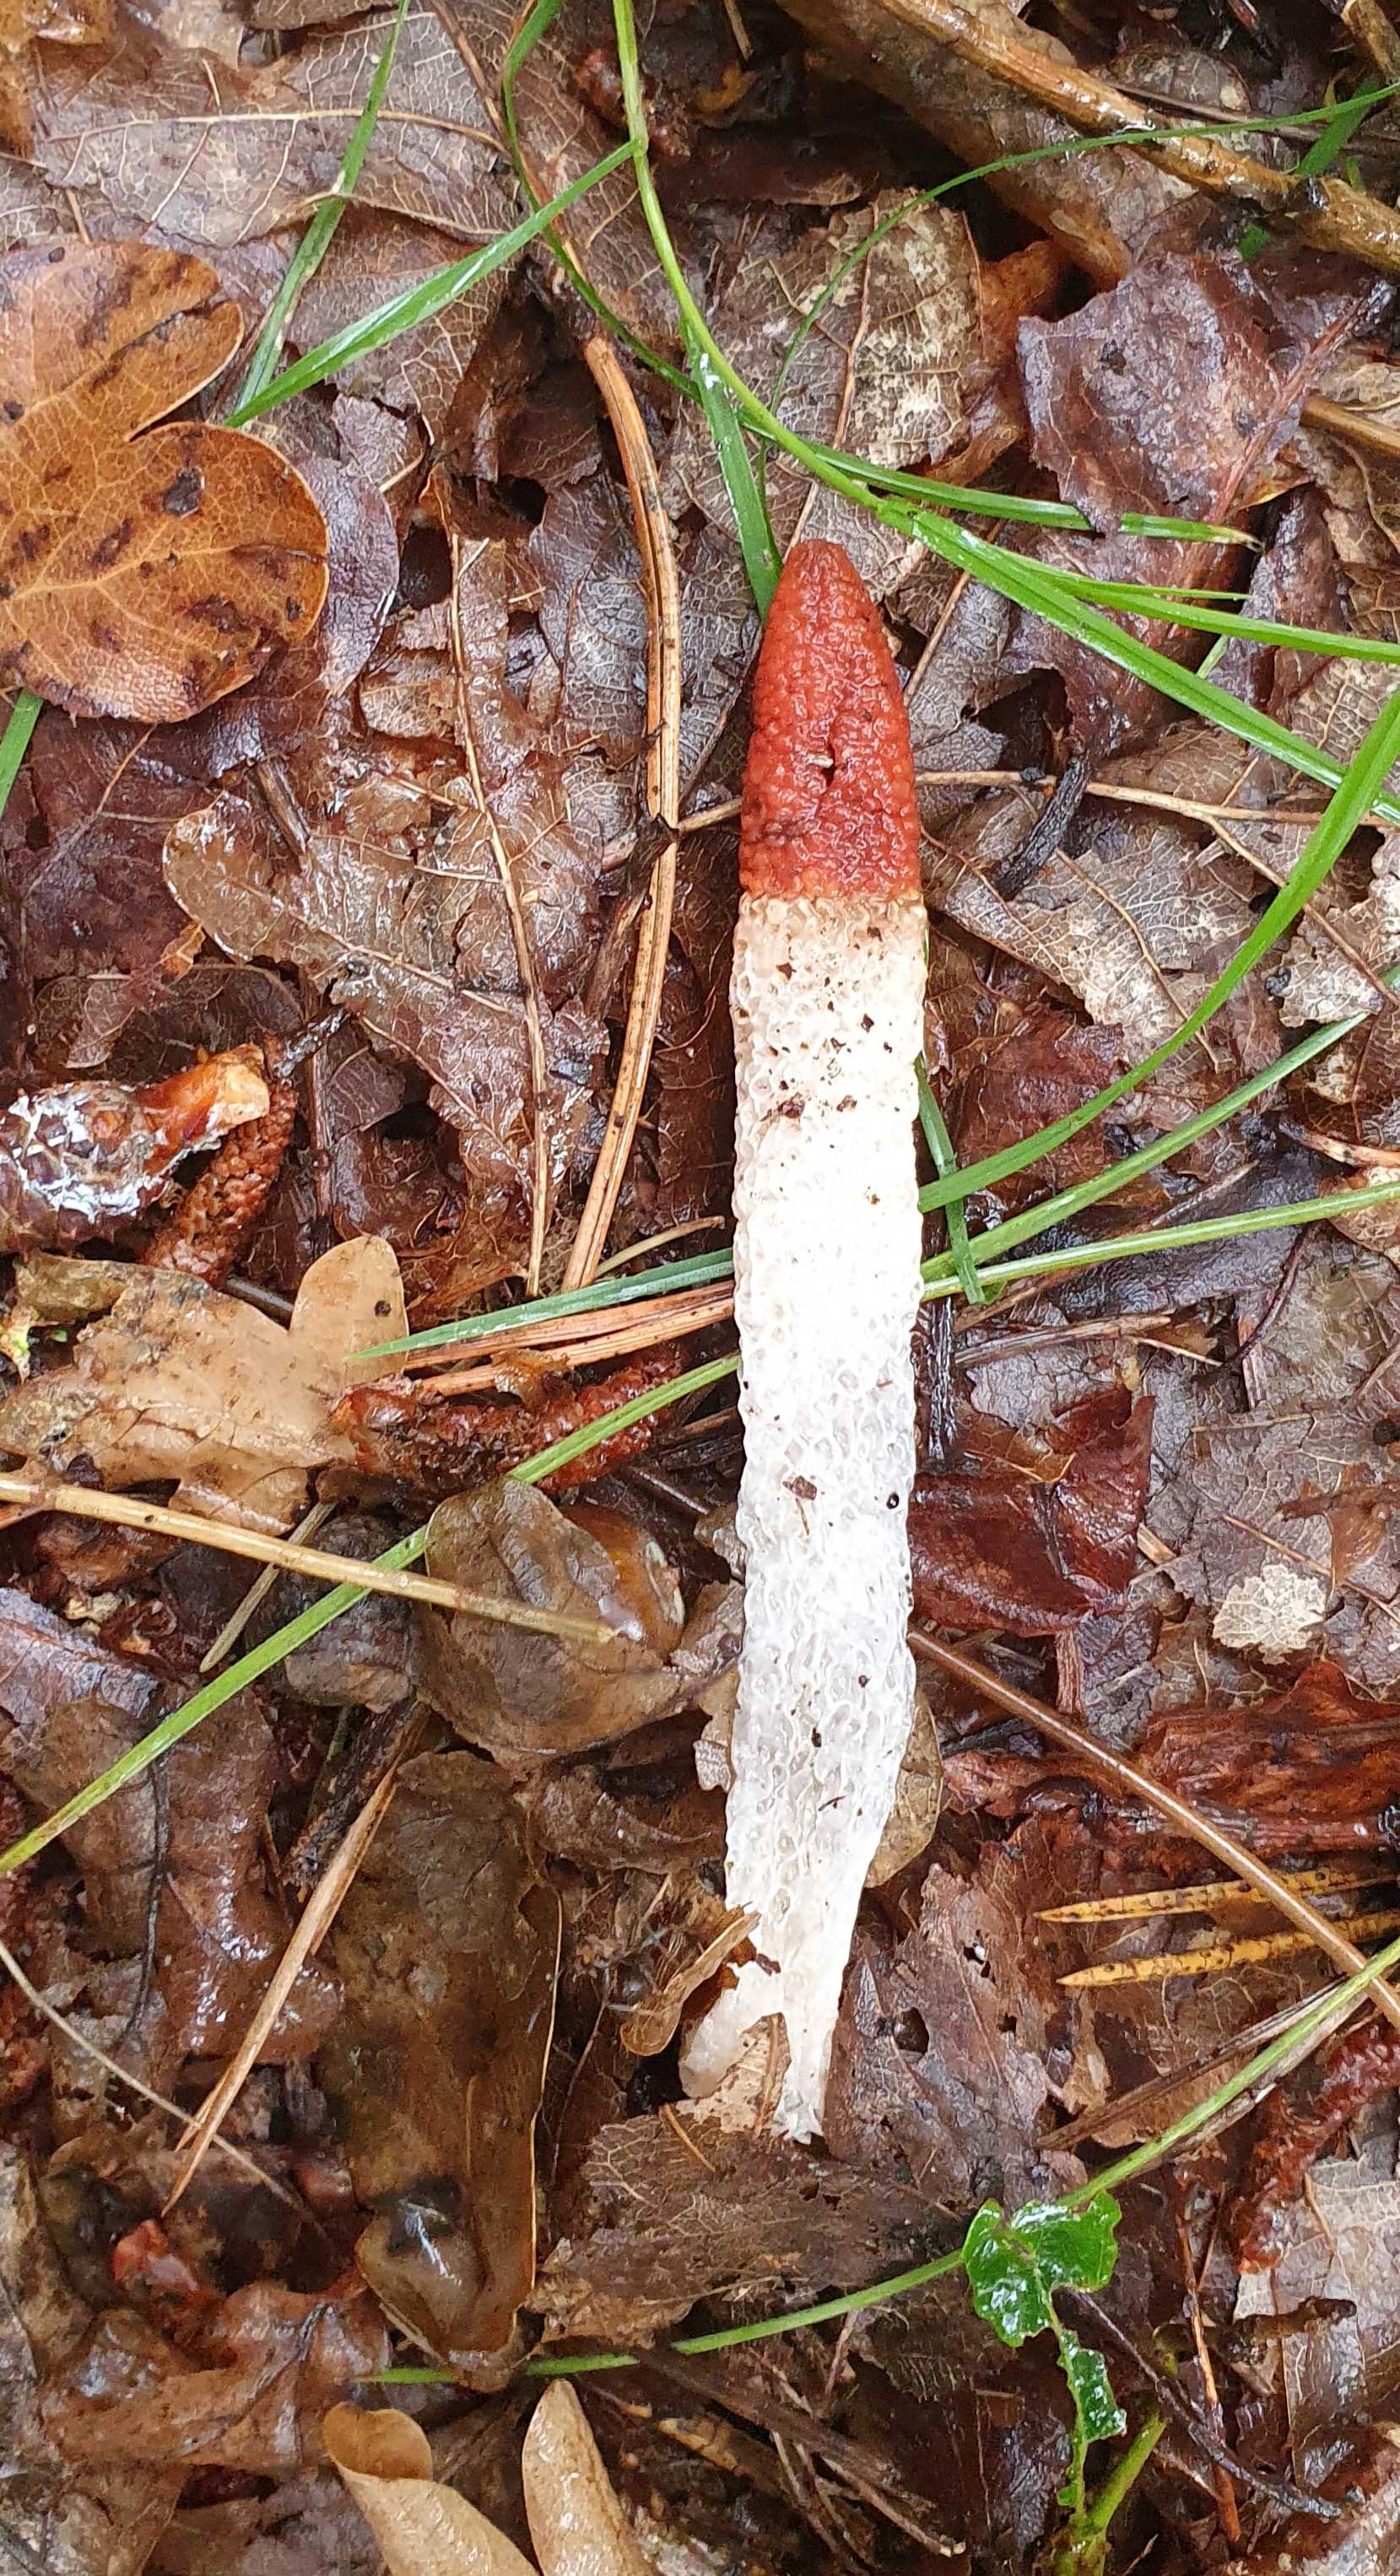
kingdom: Fungi
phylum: Basidiomycota
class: Agaricomycetes
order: Phallales
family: Phallaceae
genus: Mutinus
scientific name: Mutinus caninus
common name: hunde-stinksvamp
